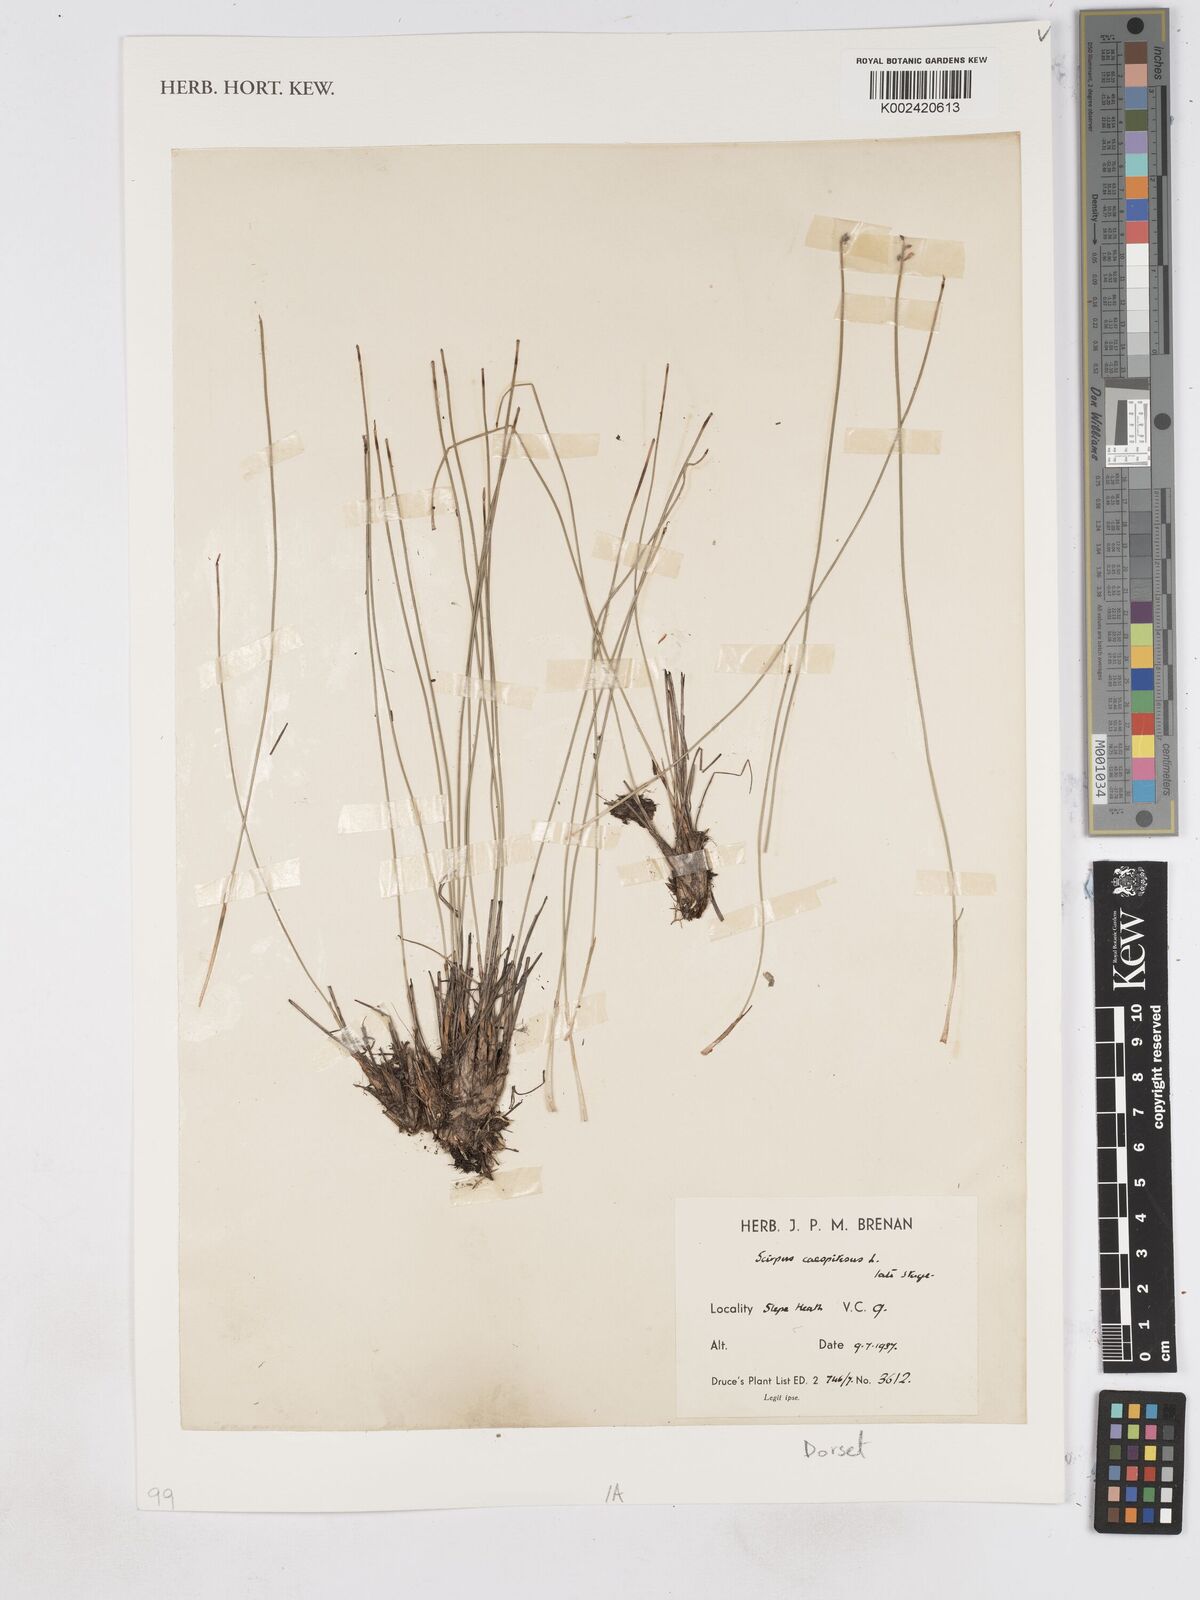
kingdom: Plantae
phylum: Tracheophyta
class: Liliopsida
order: Poales
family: Cyperaceae
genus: Eleocharis
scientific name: Eleocharis quinqueflora
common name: Few-flowered spike-rush
